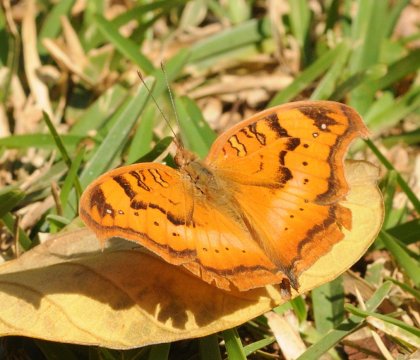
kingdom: Animalia
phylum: Arthropoda
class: Insecta
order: Lepidoptera
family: Nymphalidae
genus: Junonia
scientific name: Junonia cuama
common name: Paler Commodore
